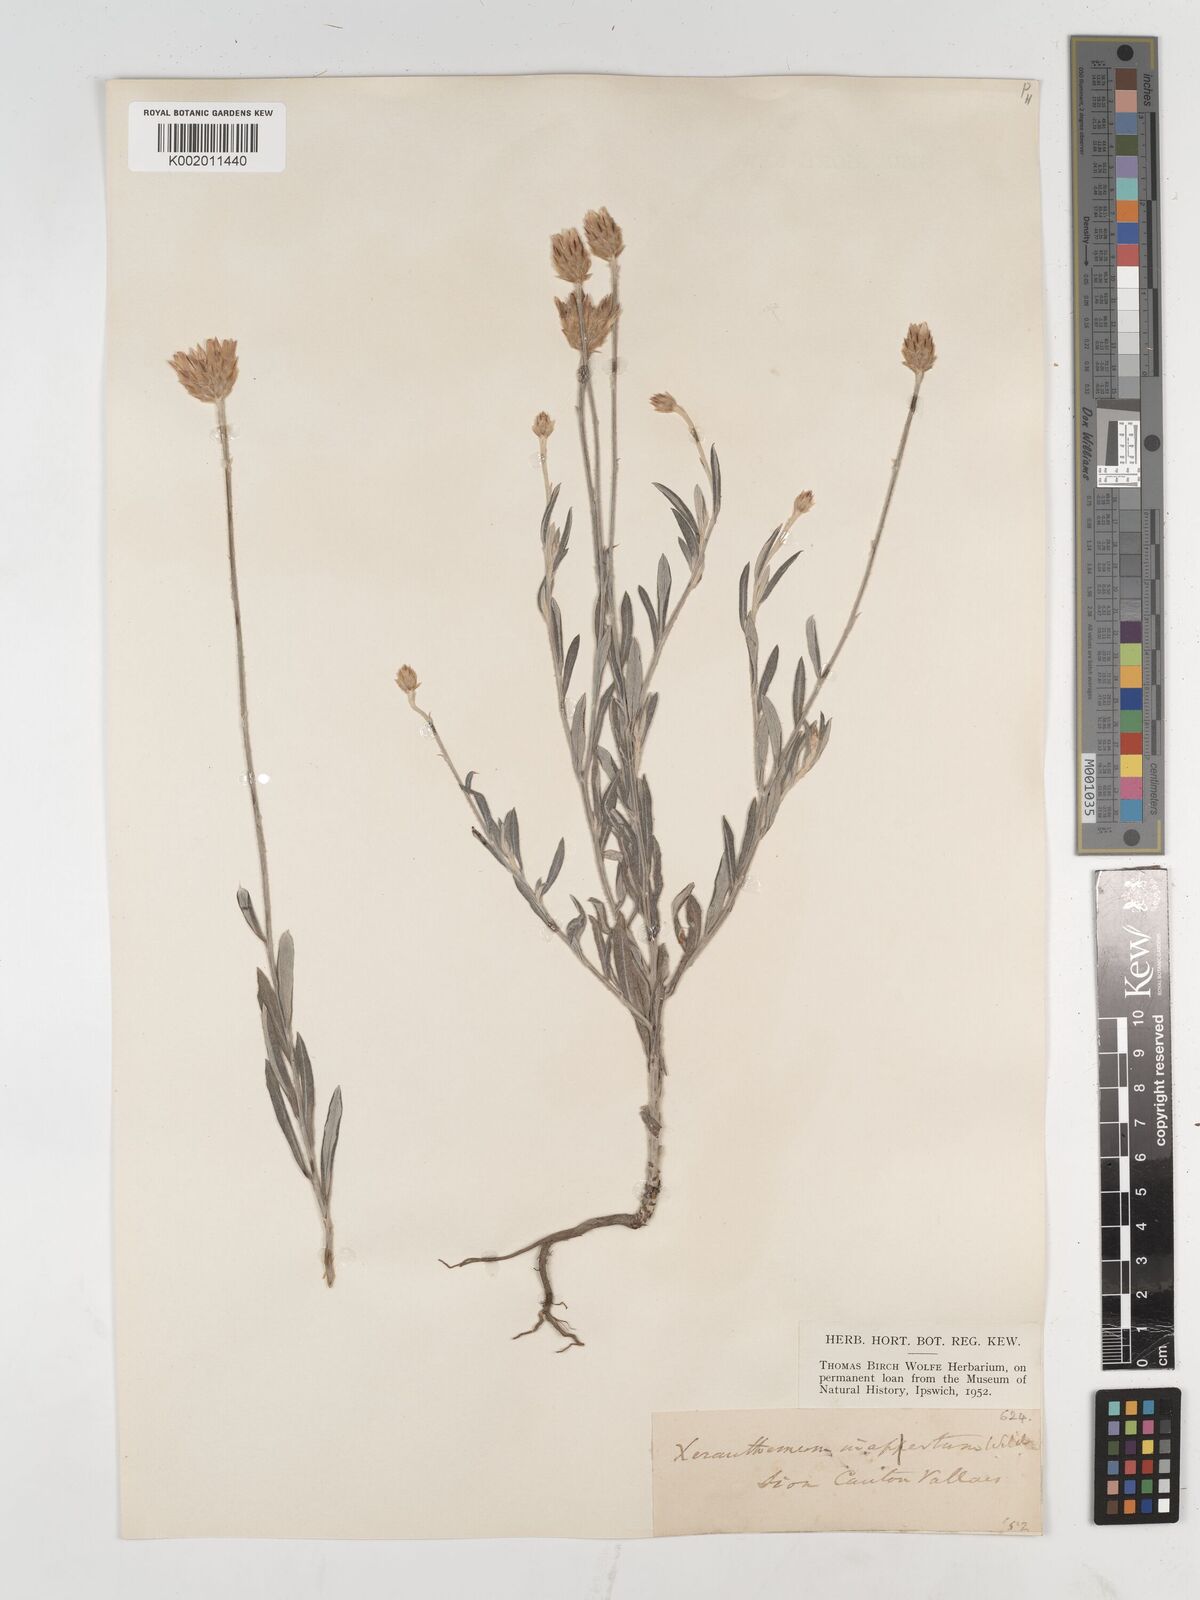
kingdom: Plantae
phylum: Tracheophyta
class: Magnoliopsida
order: Asterales
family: Asteraceae
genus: Xeranthemum
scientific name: Xeranthemum
